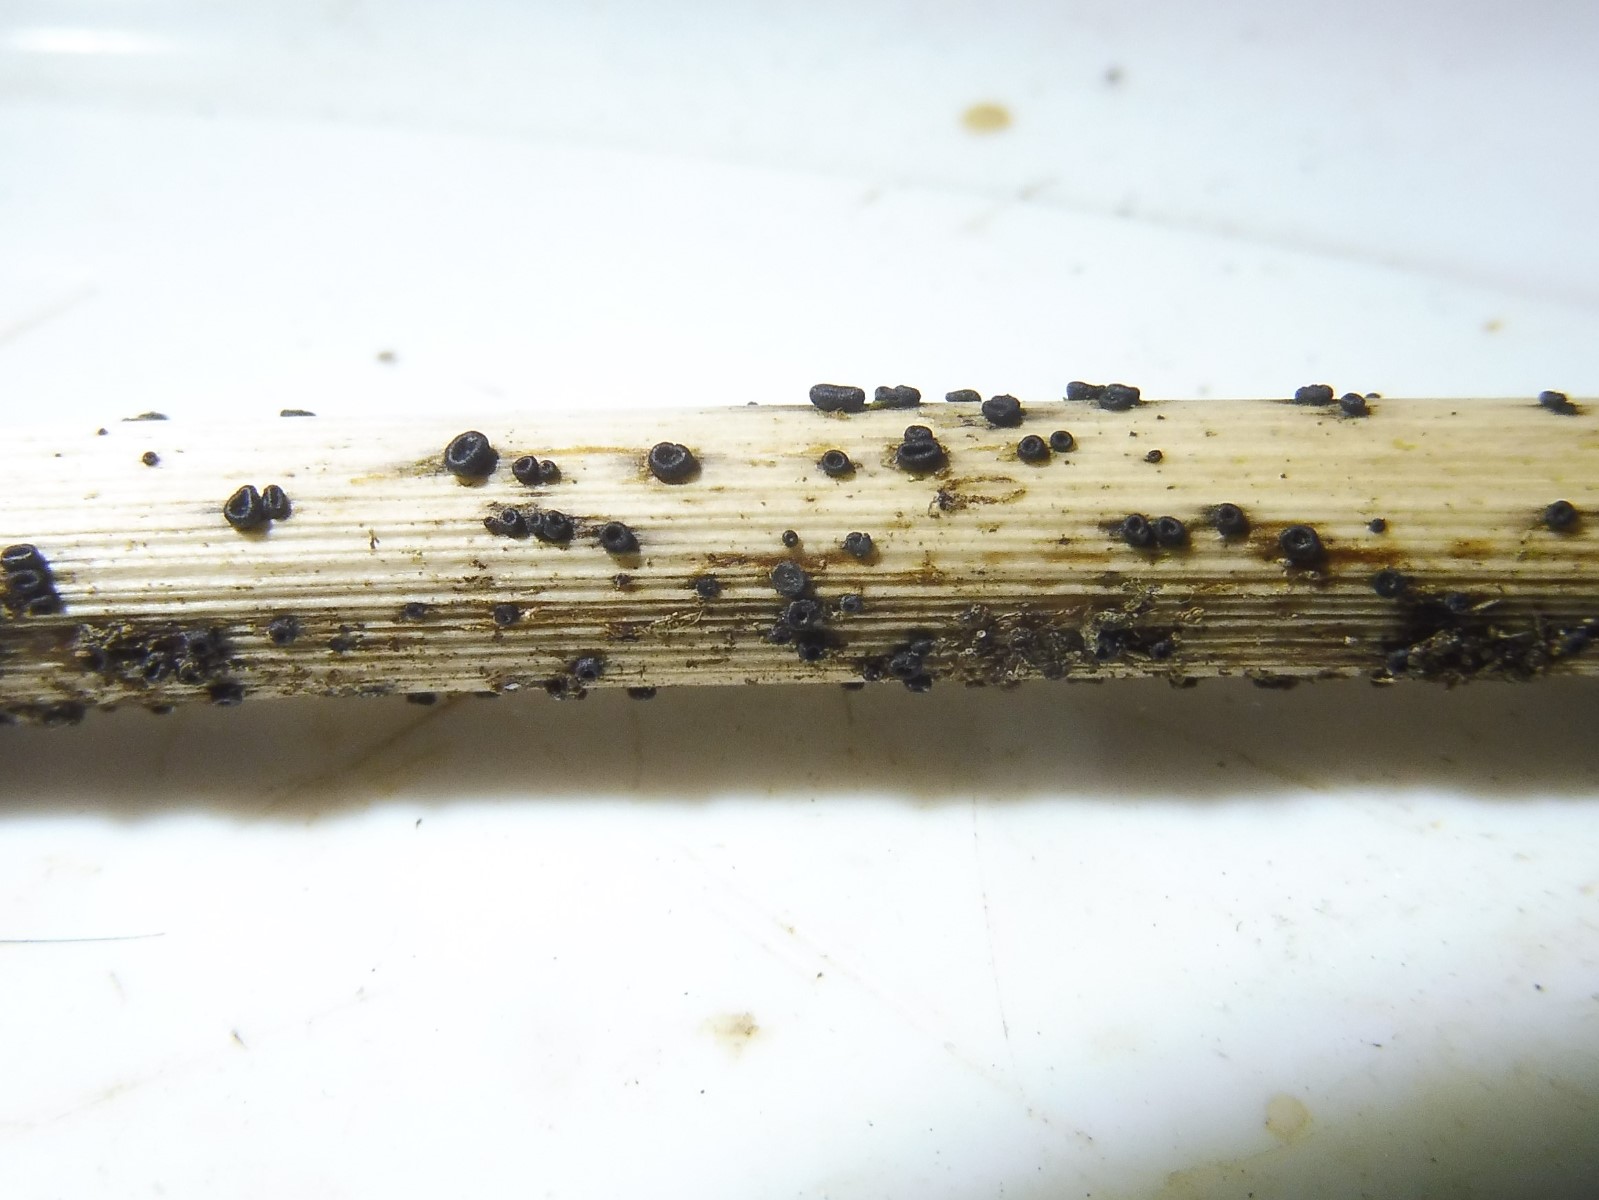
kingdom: Fungi
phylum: Ascomycota
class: Leotiomycetes
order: Helotiales
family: Heterosphaeriaceae
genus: Heterosphaeria
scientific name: Heterosphaeria
